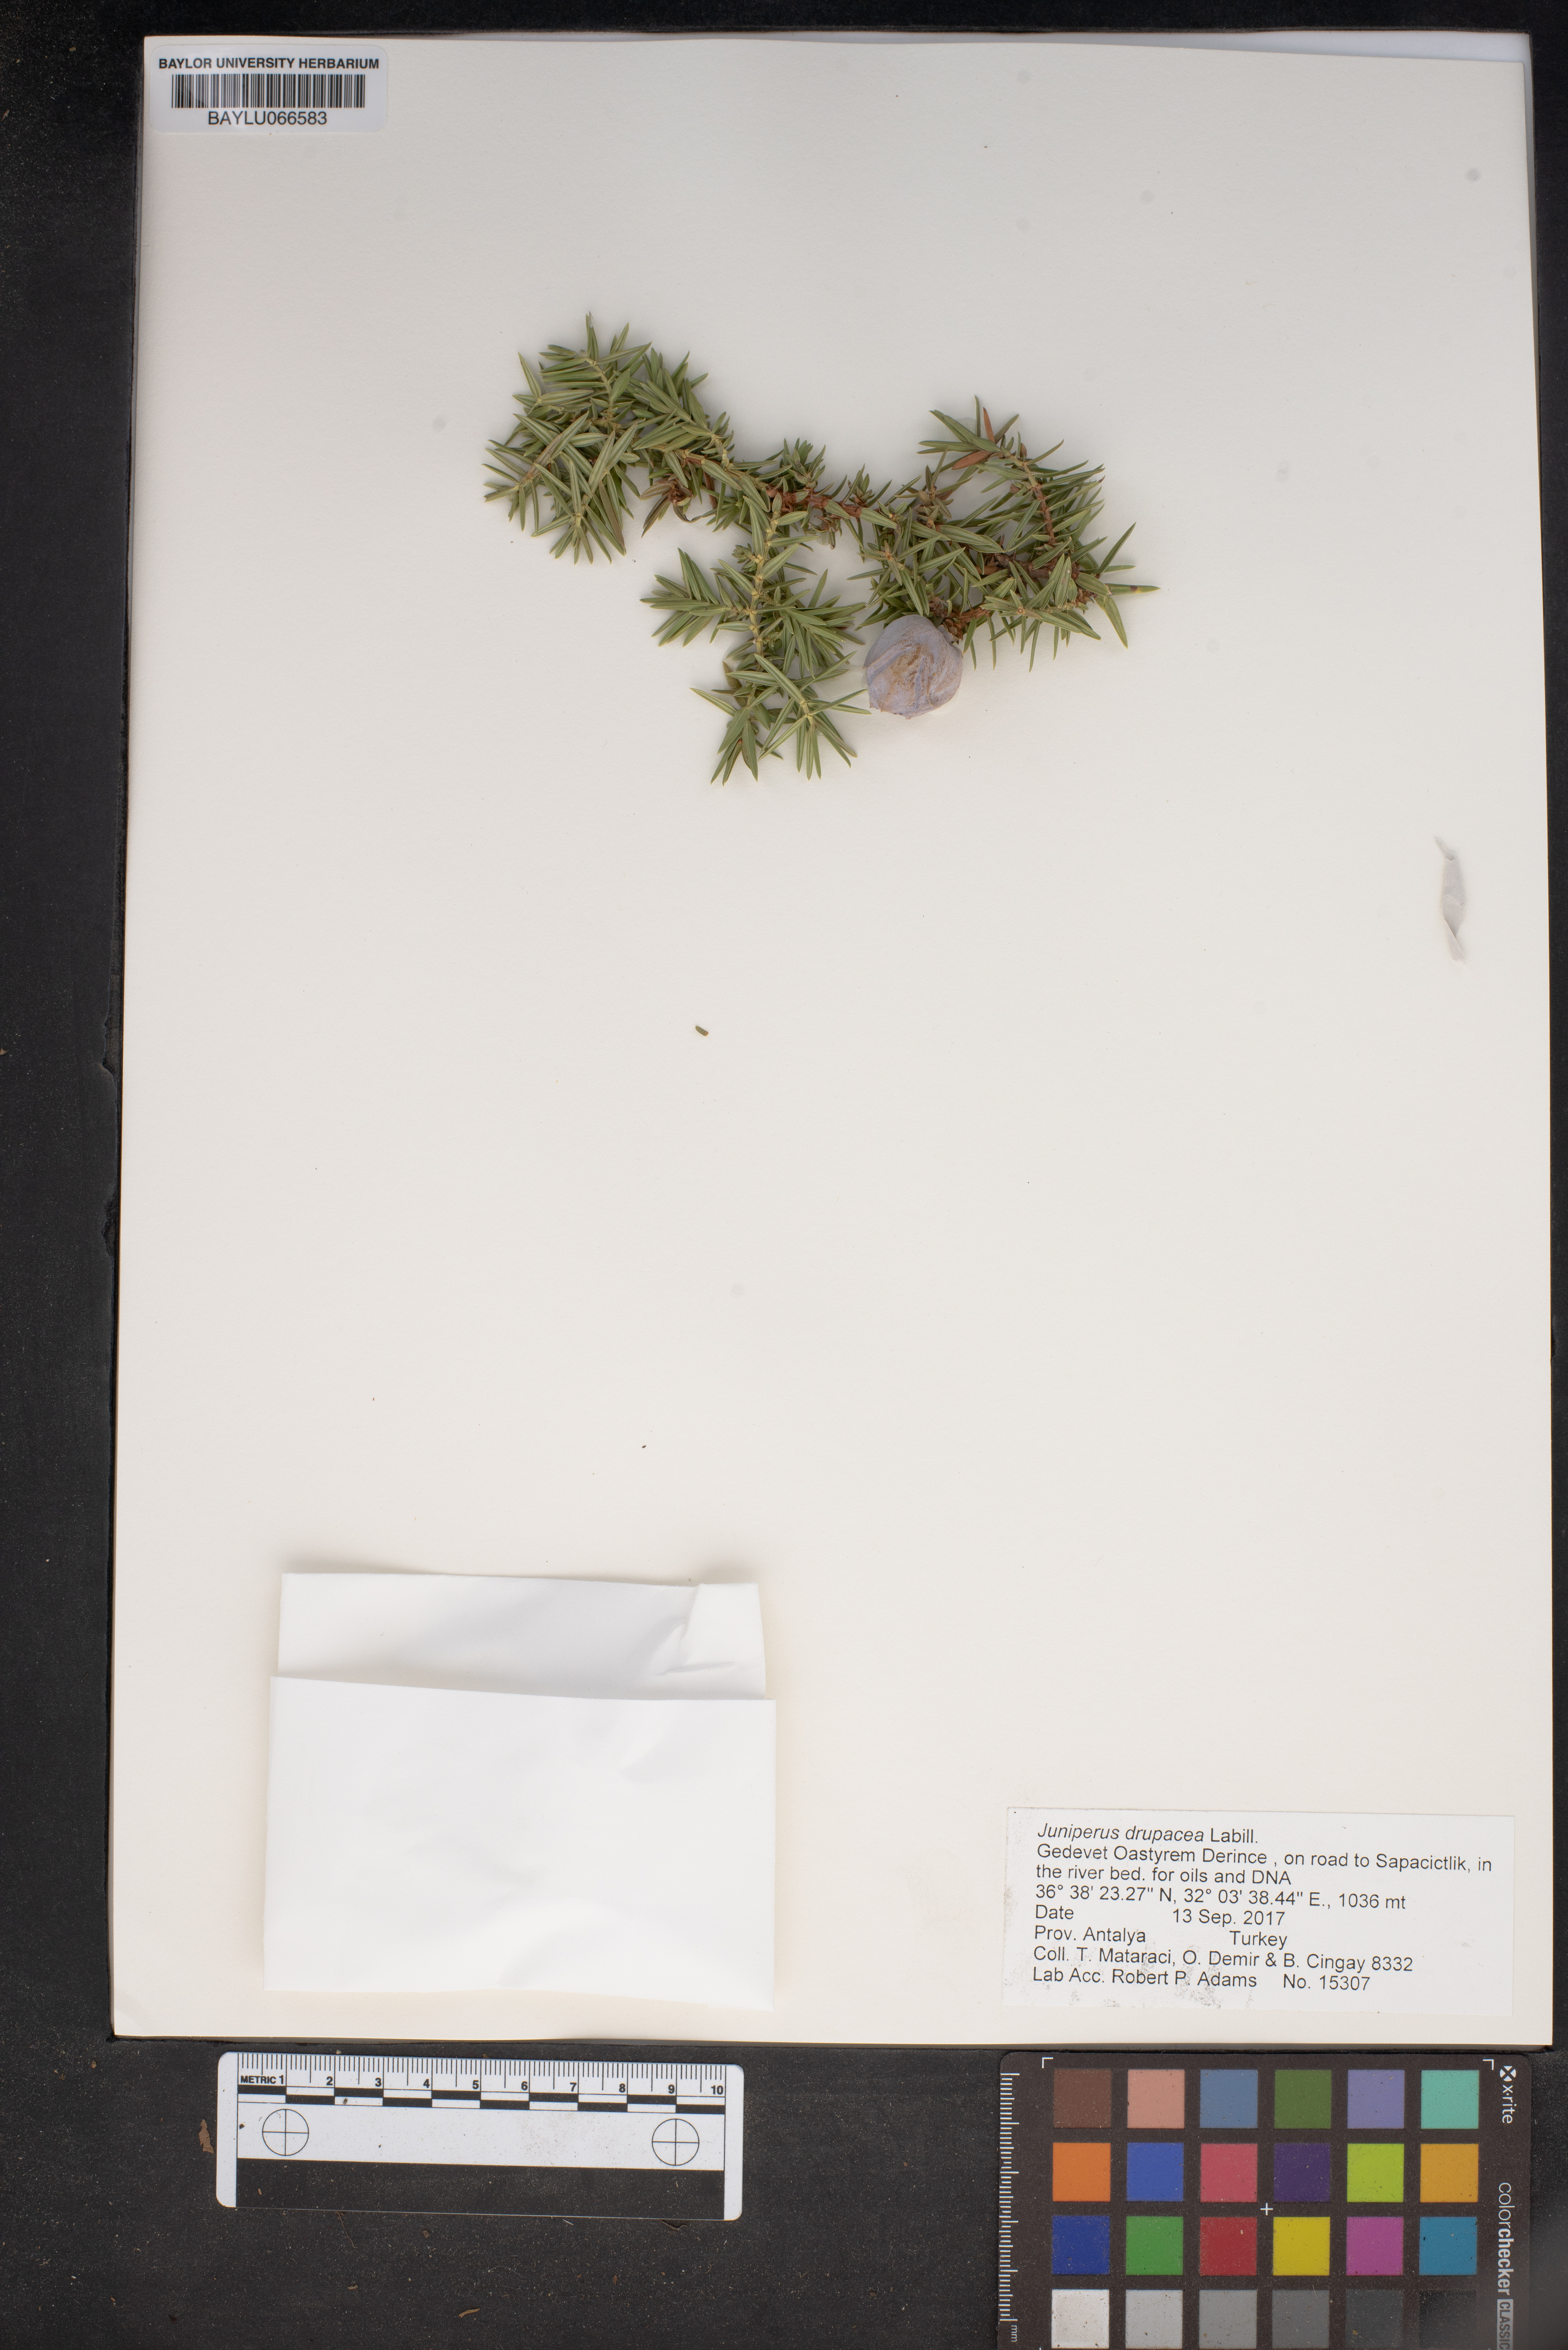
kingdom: Plantae
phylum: Tracheophyta
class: Pinopsida
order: Pinales
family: Cupressaceae
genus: Juniperus
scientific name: Juniperus drupacea
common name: Syrian juniper
